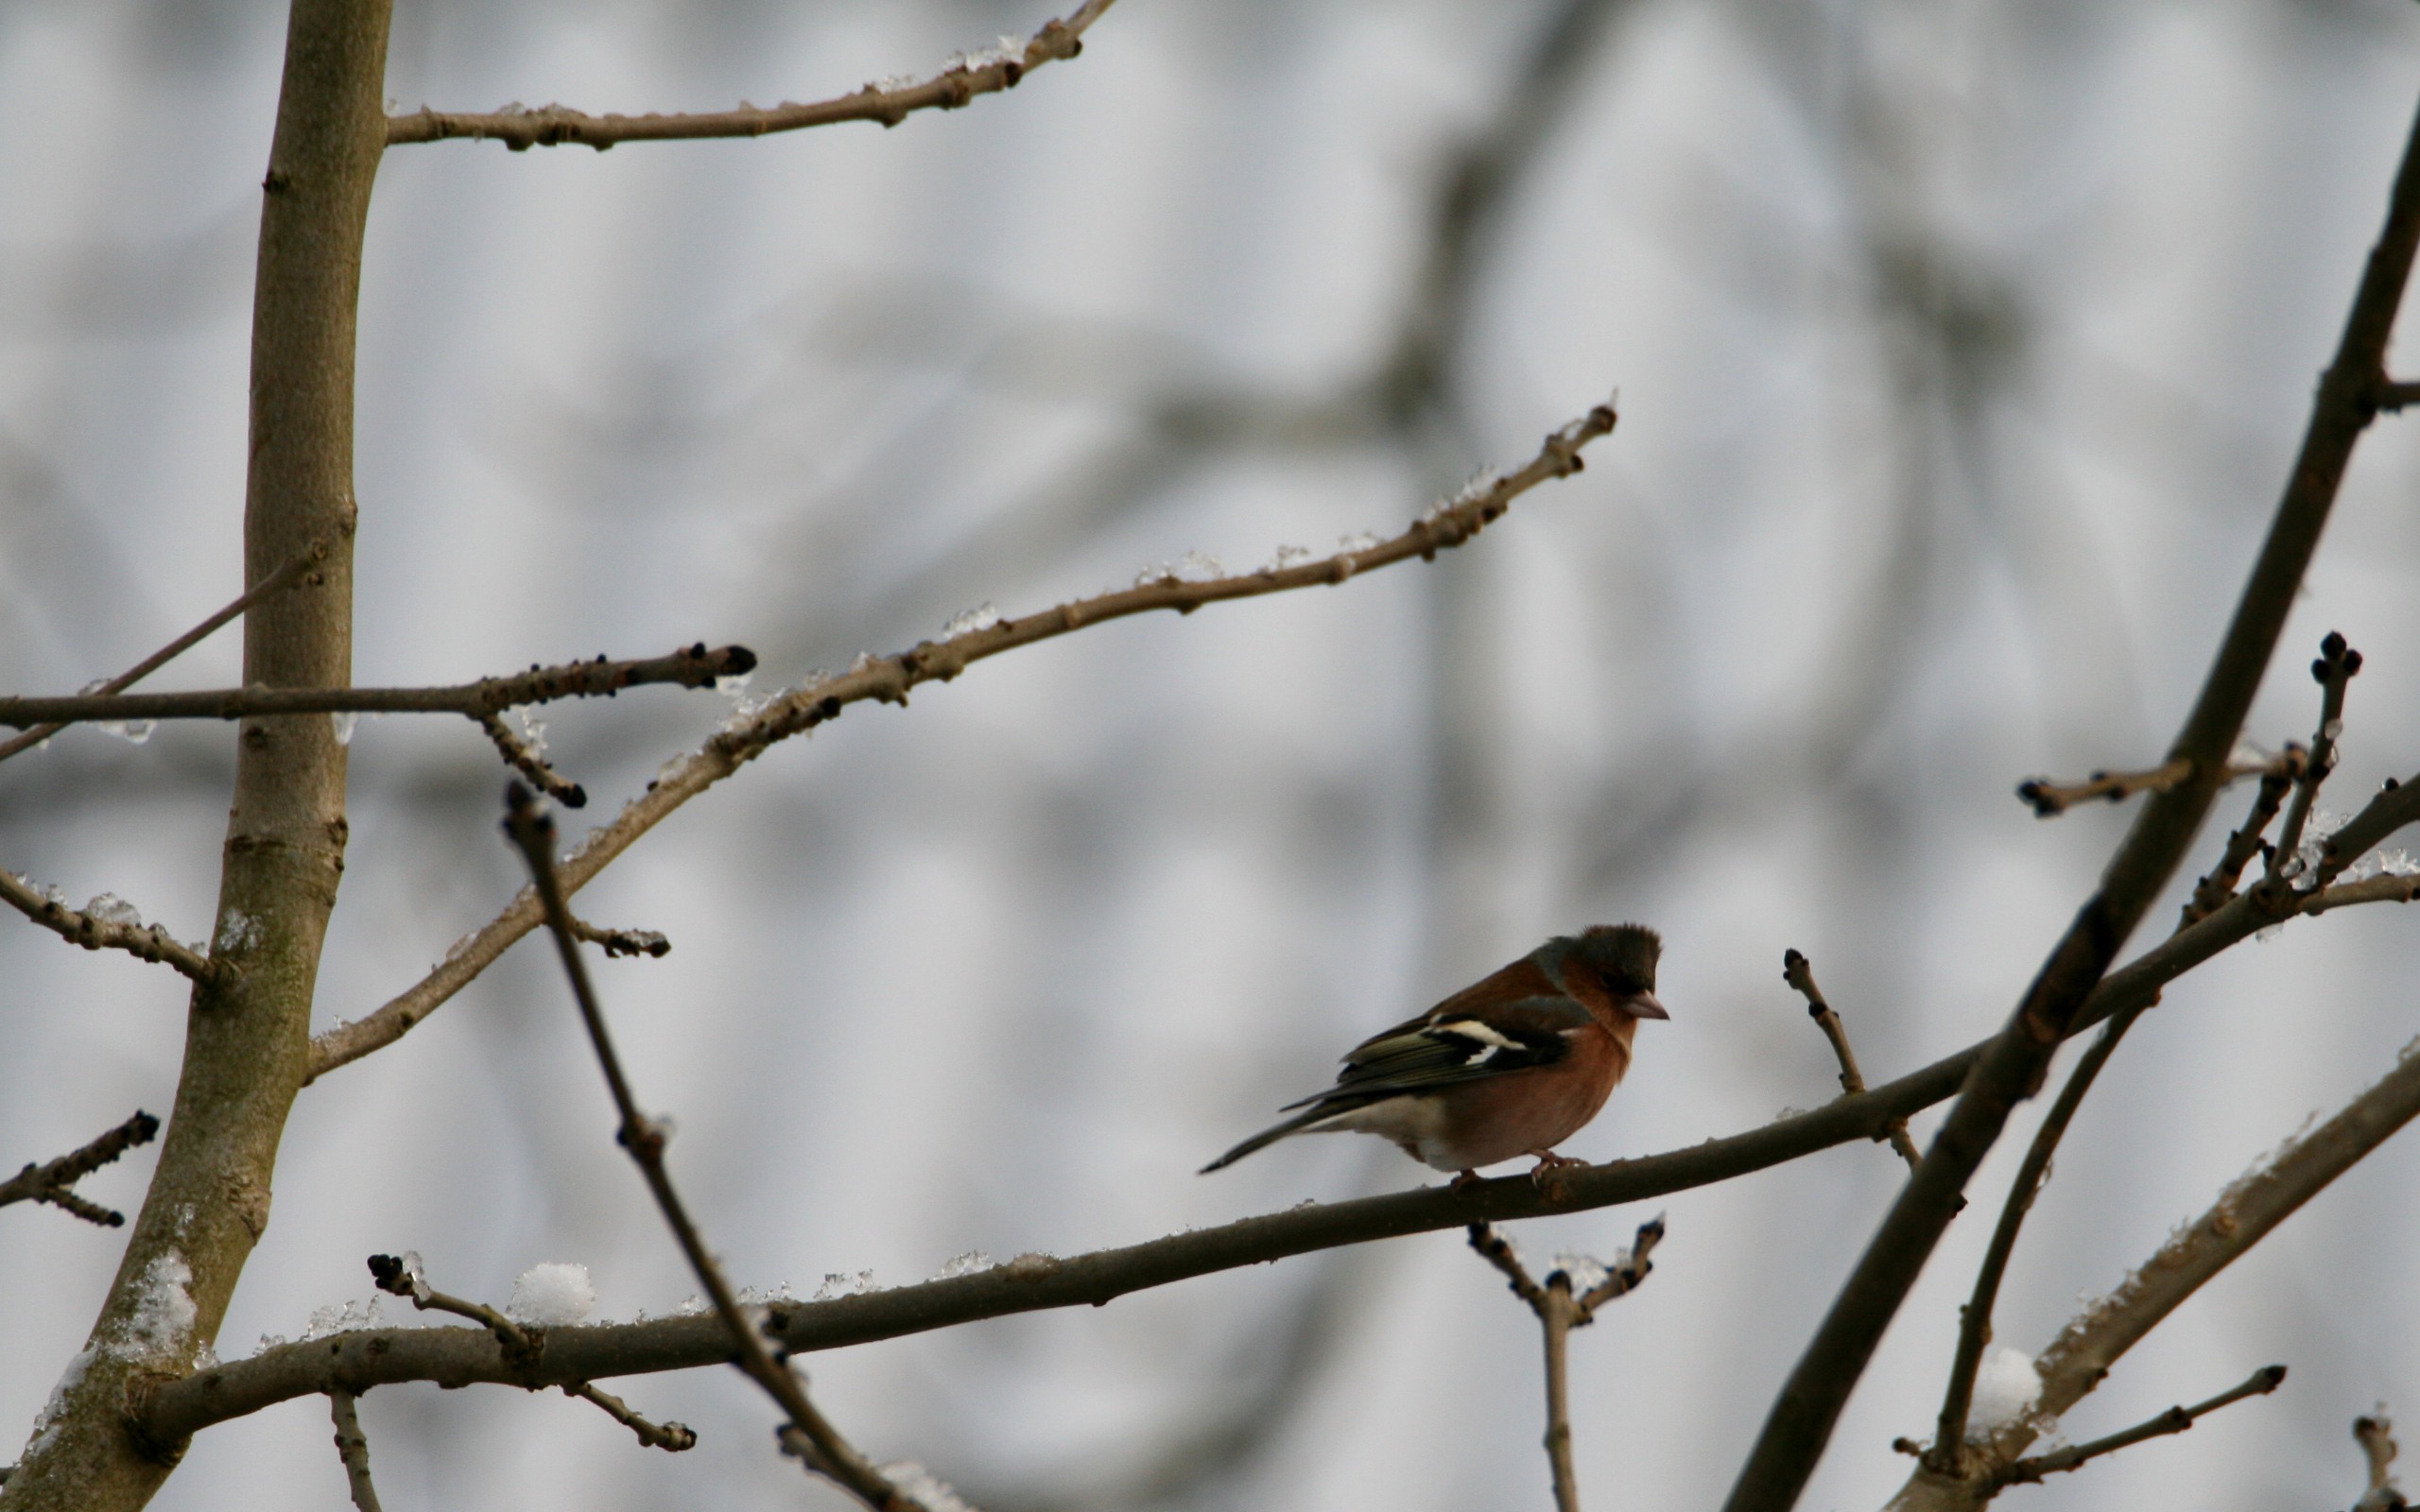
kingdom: Animalia
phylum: Chordata
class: Aves
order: Passeriformes
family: Fringillidae
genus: Fringilla
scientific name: Fringilla coelebs
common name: Bogfinke
